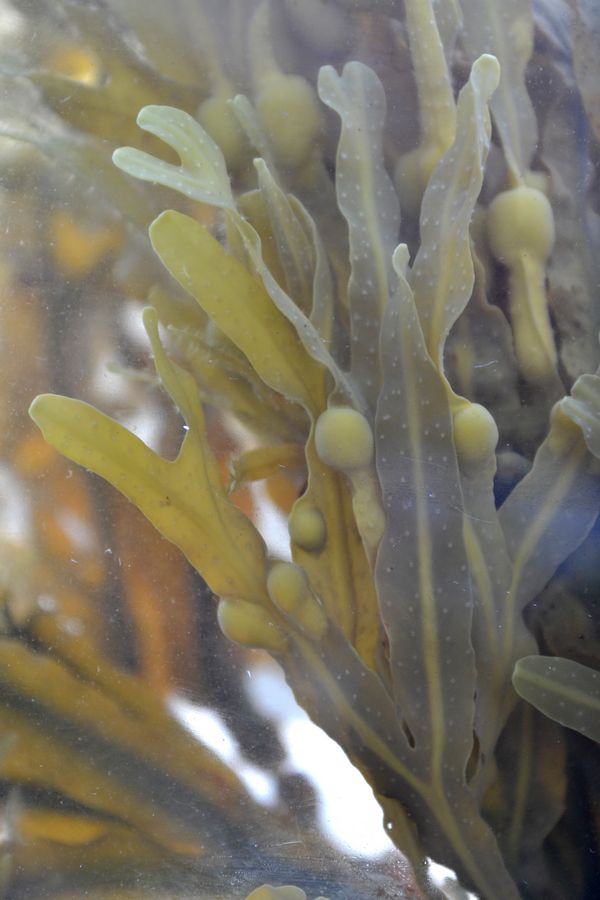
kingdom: Plantae
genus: Fucus
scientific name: Fucus
